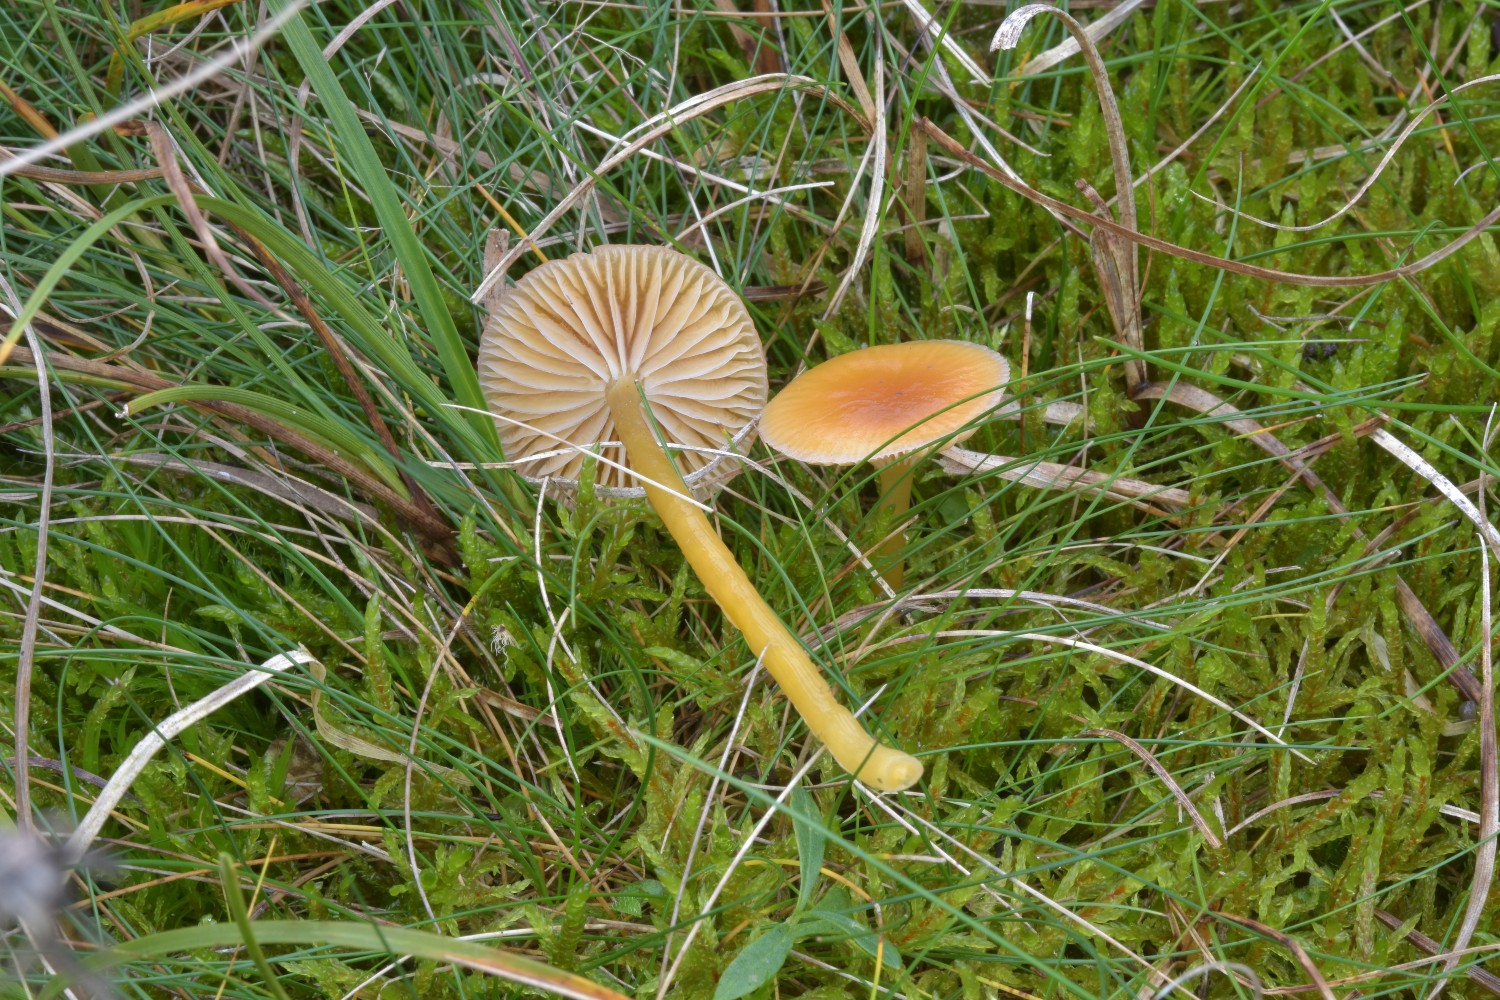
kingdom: Fungi
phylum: Basidiomycota
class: Agaricomycetes
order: Agaricales
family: Hygrophoraceae
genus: Gliophorus
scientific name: Gliophorus laetus
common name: brusk-vokshat
